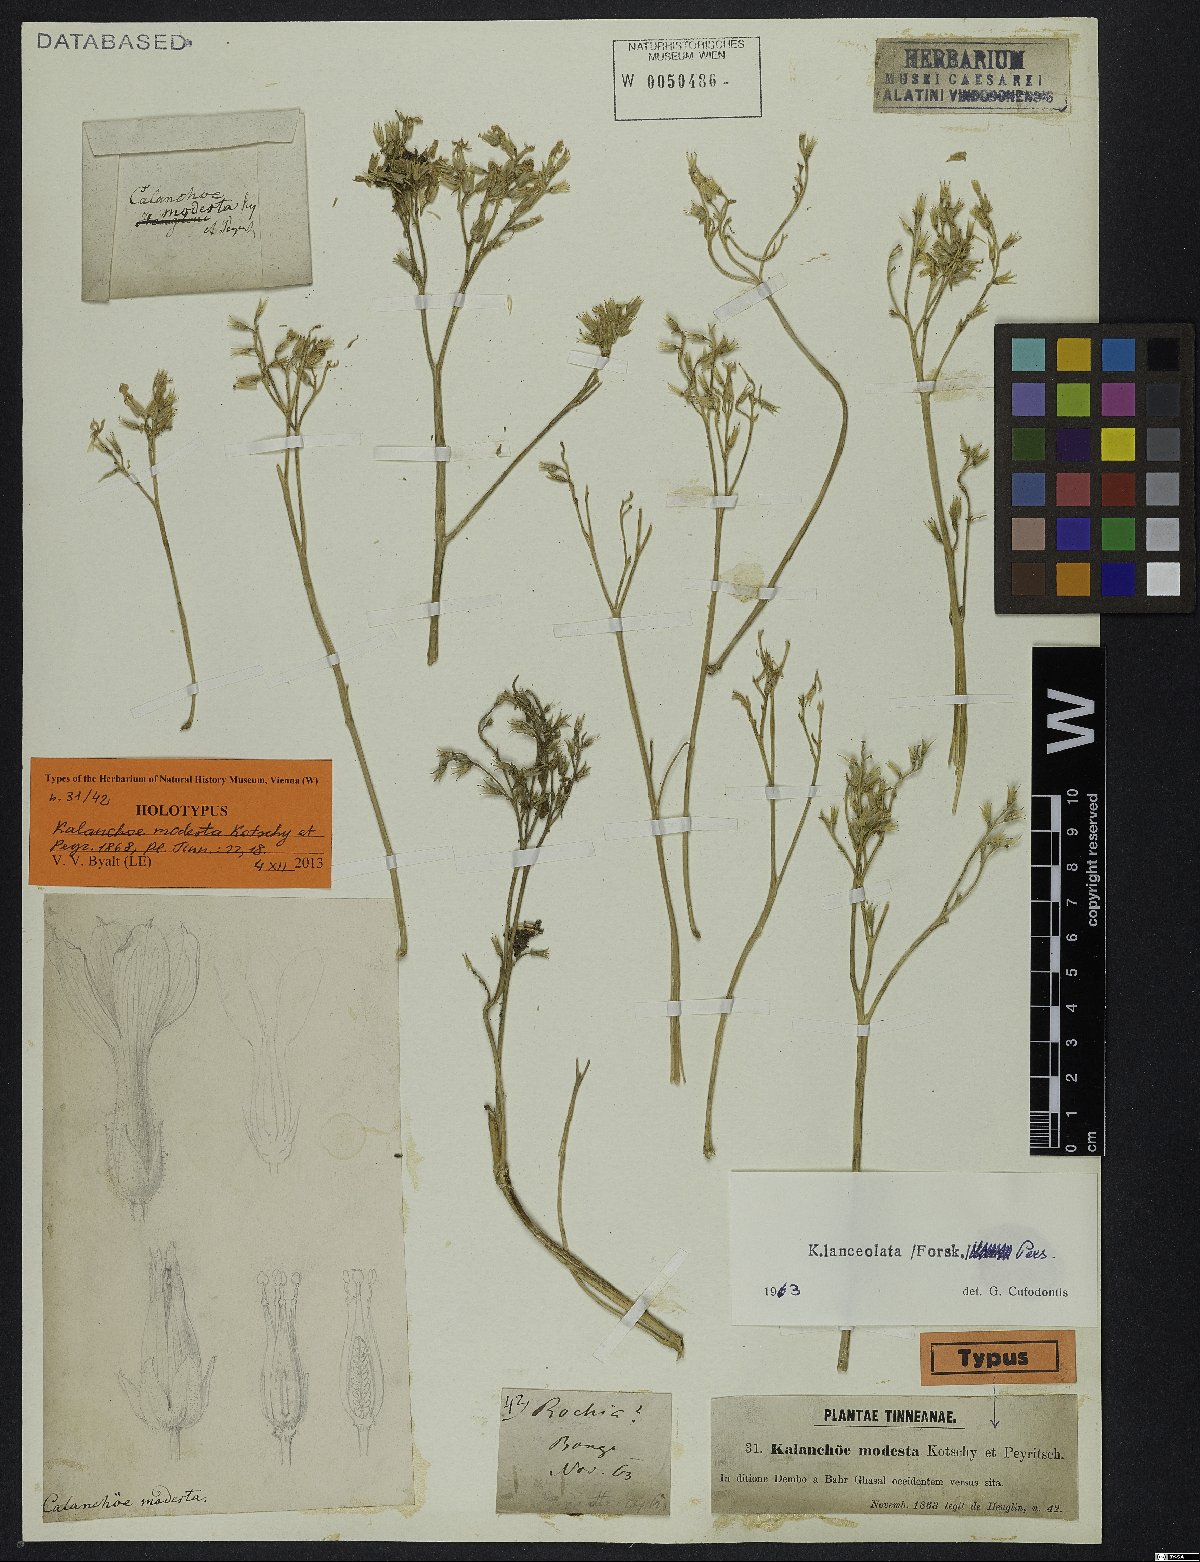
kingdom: Plantae
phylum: Tracheophyta
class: Magnoliopsida
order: Saxifragales
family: Crassulaceae
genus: Kalanchoe
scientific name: Kalanchoe lanceolata
